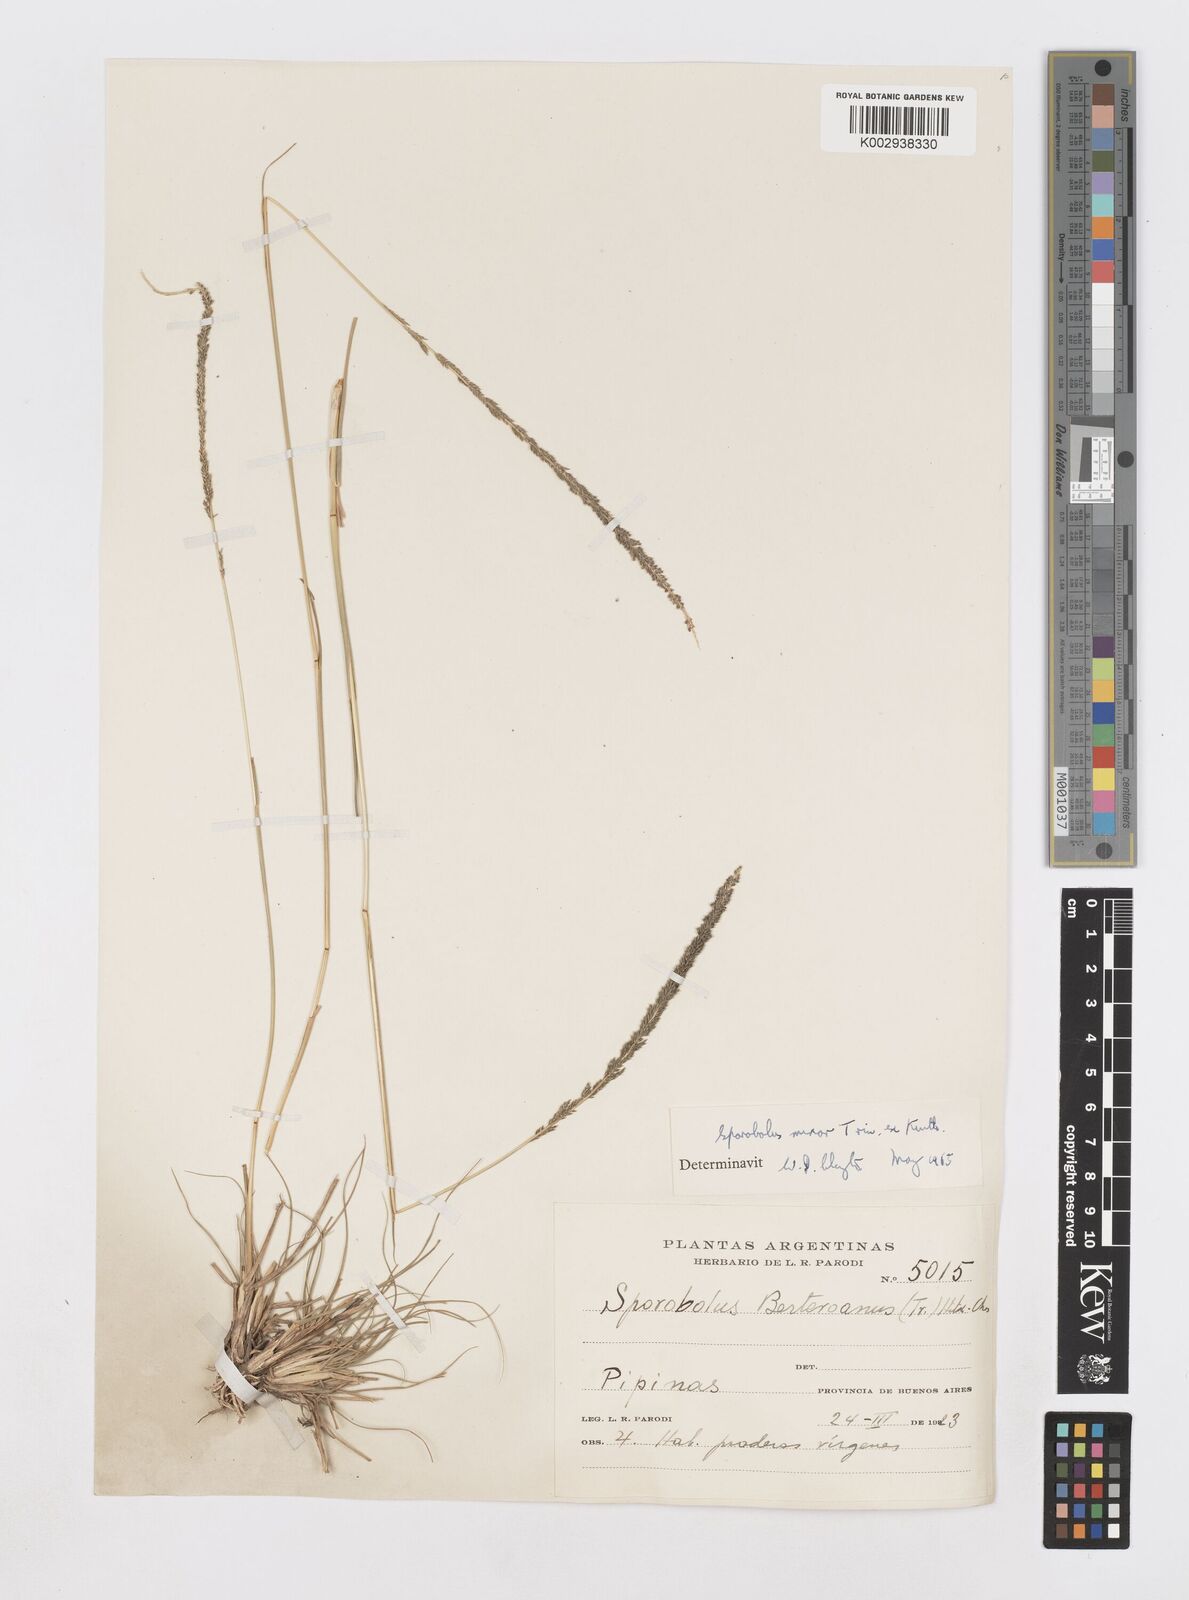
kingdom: Plantae
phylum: Tracheophyta
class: Liliopsida
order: Poales
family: Poaceae
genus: Sporobolus
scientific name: Sporobolus minor
